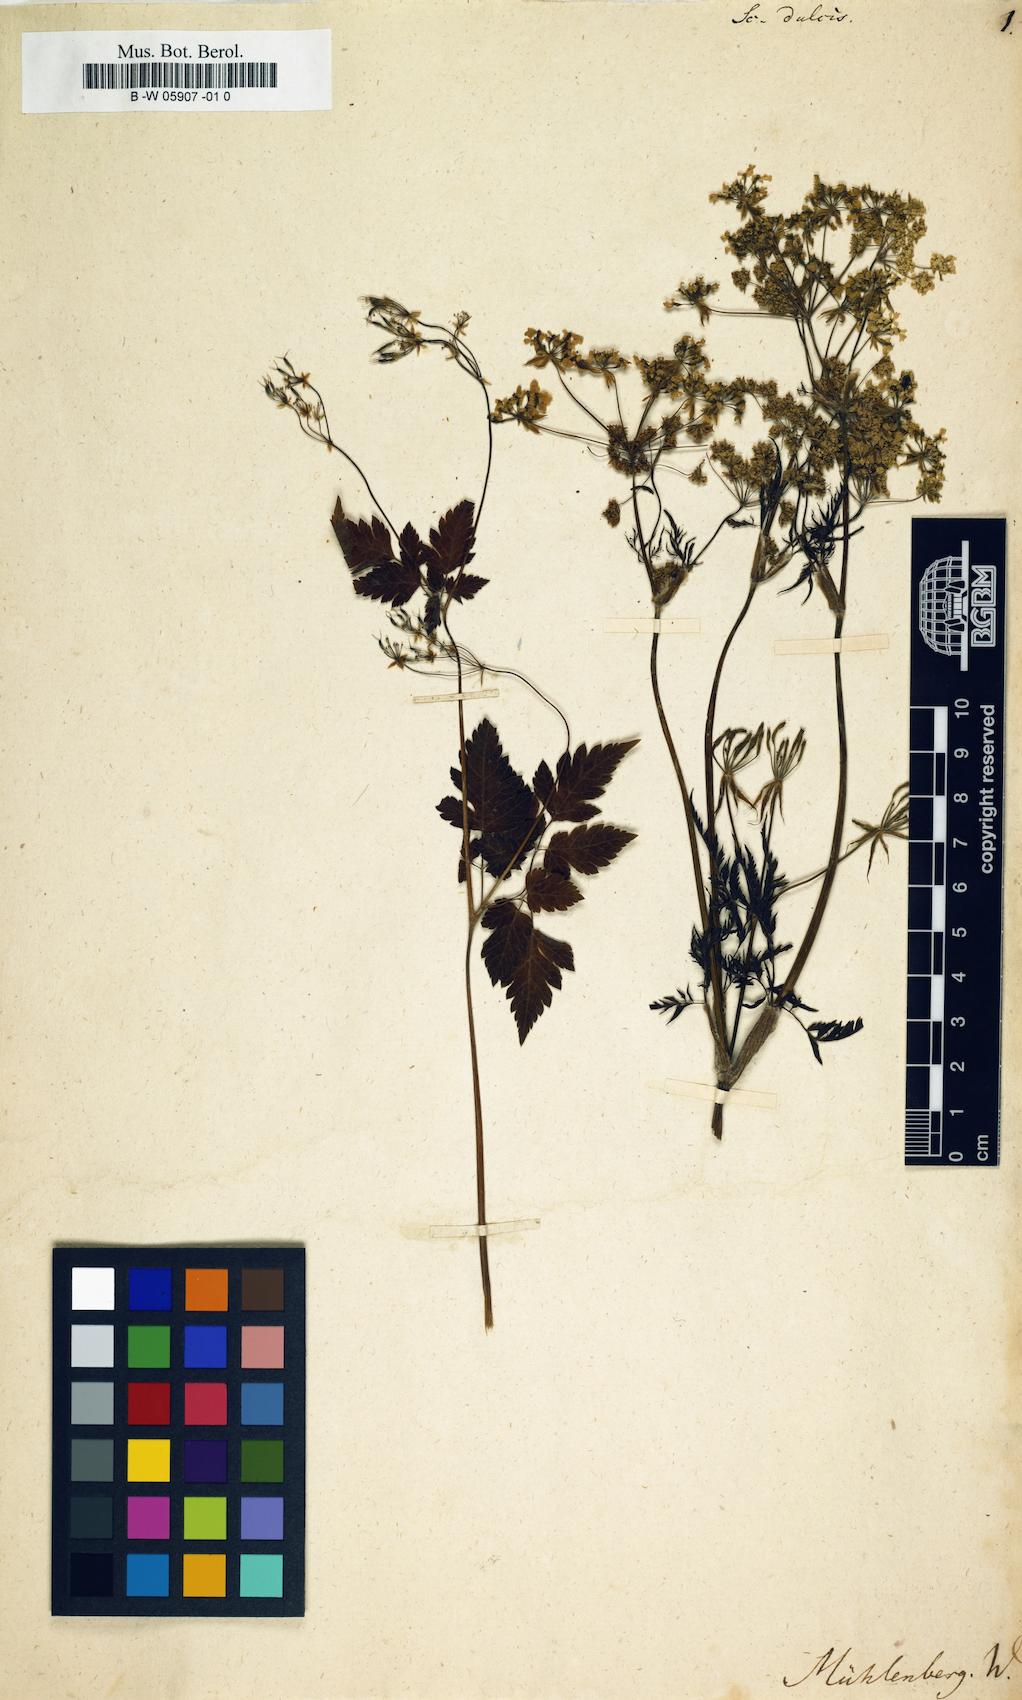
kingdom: Plantae
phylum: Tracheophyta
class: Magnoliopsida
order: Apiales
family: Apiaceae
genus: Osmorhiza
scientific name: Osmorhiza claytonii
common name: Hairy sweet cicely
